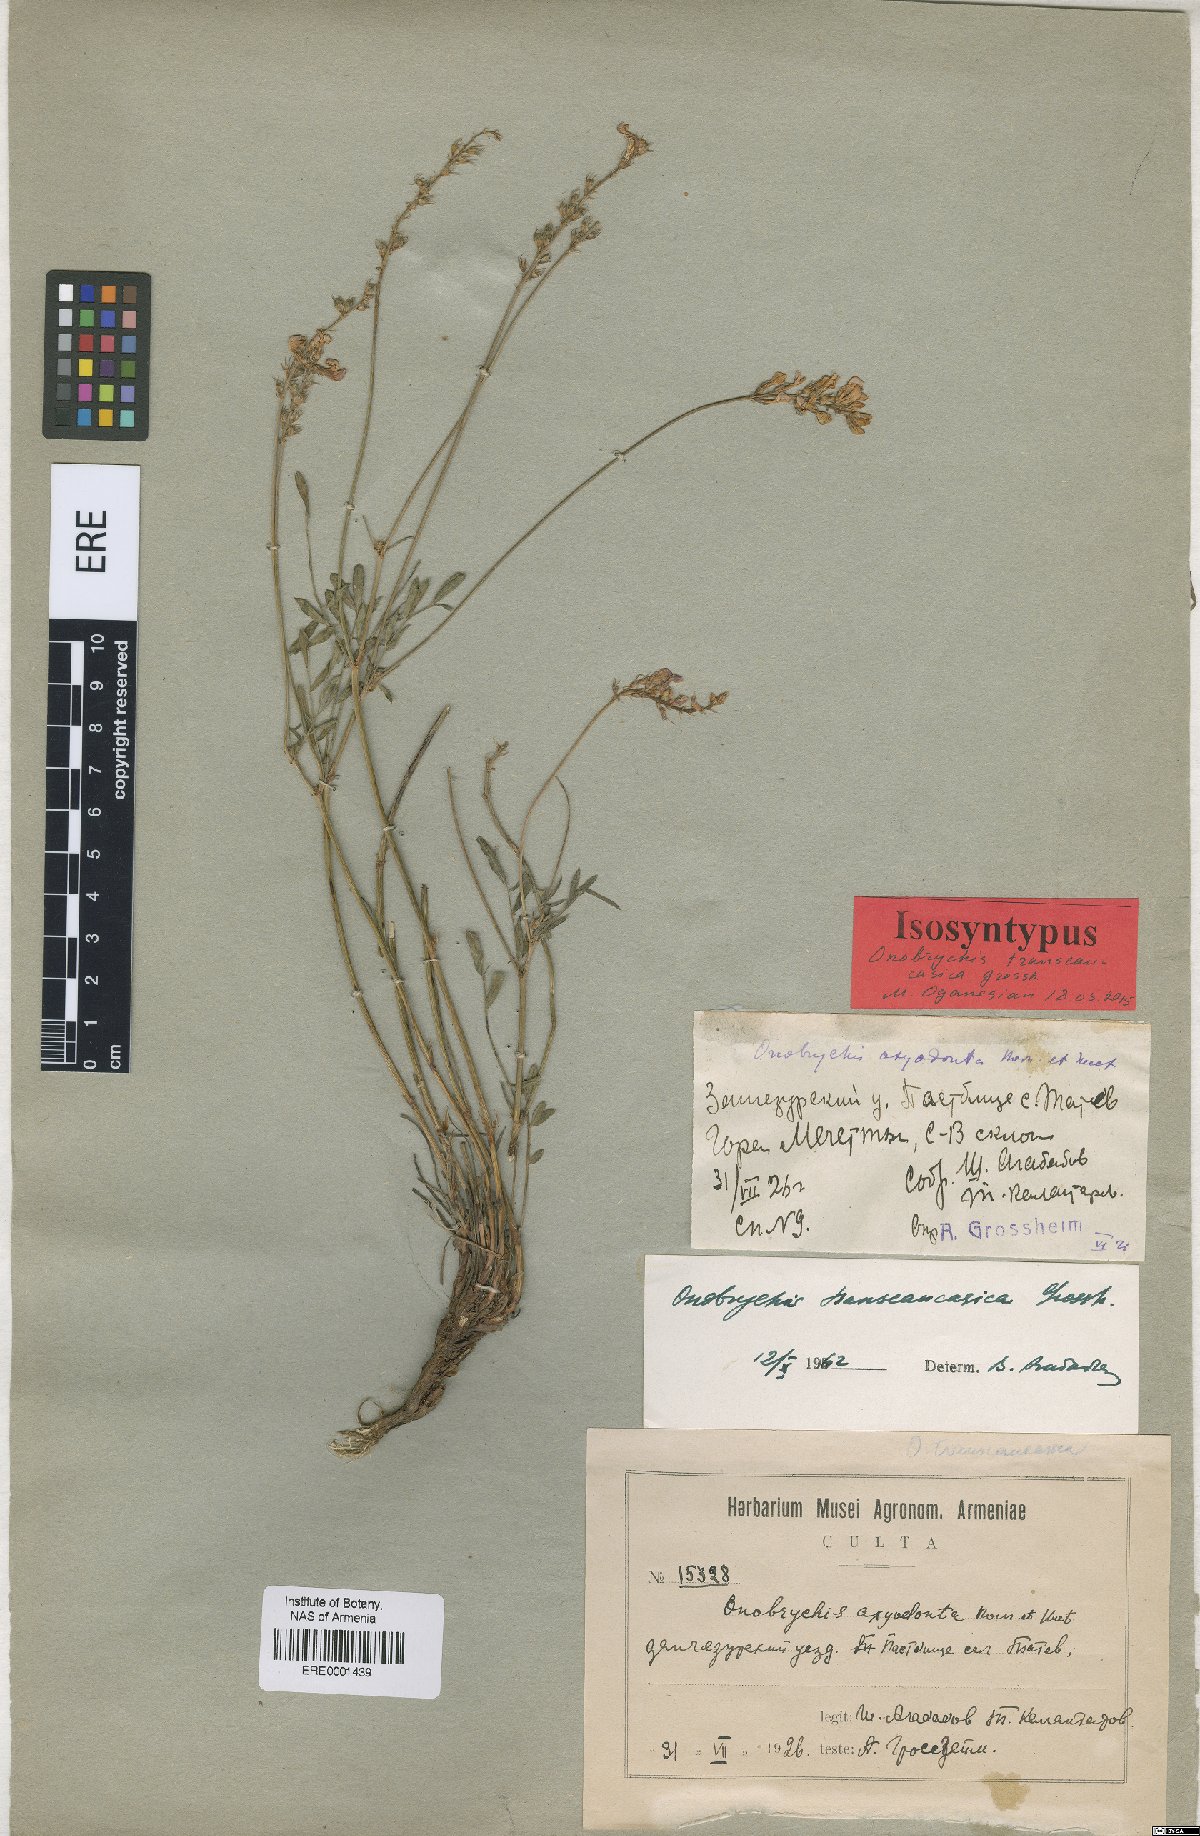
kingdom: Plantae
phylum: Tracheophyta
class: Magnoliopsida
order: Fabales
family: Fabaceae
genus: Onobrychis
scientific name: Onobrychis transcaucasica
